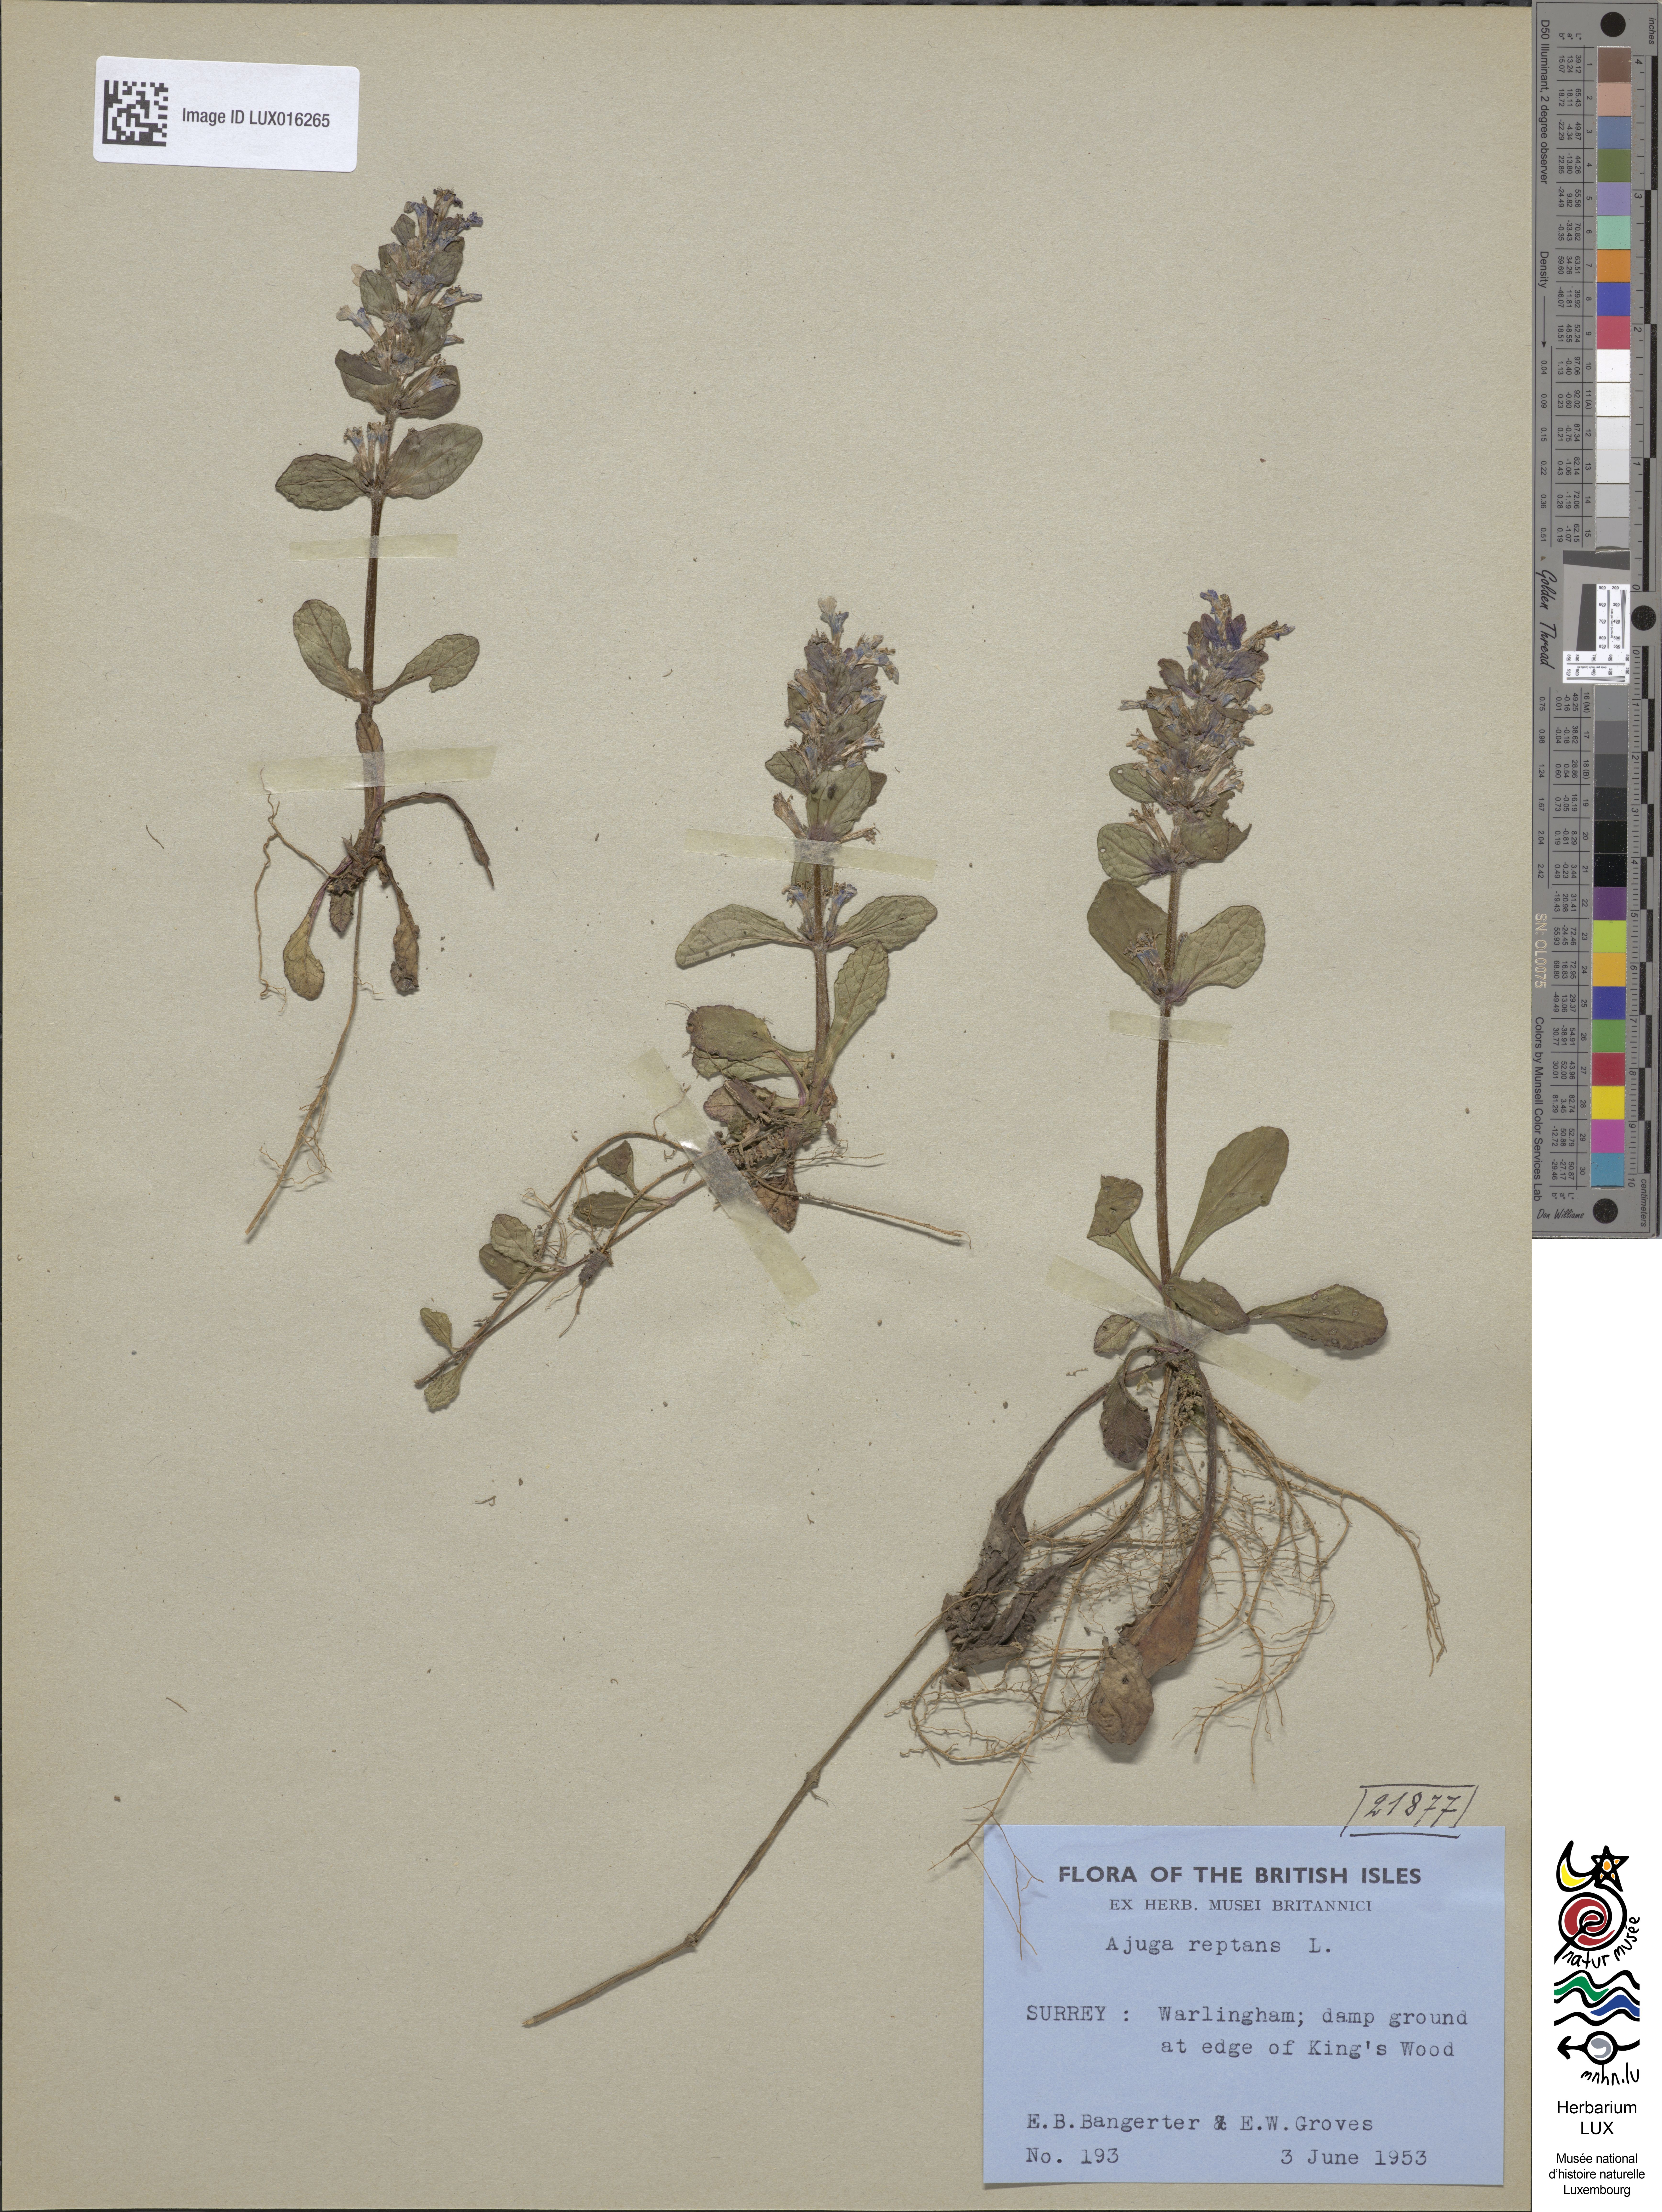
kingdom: Plantae
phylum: Tracheophyta
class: Magnoliopsida
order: Lamiales
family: Lamiaceae
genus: Ajuga
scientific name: Ajuga reptans
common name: Bugle
